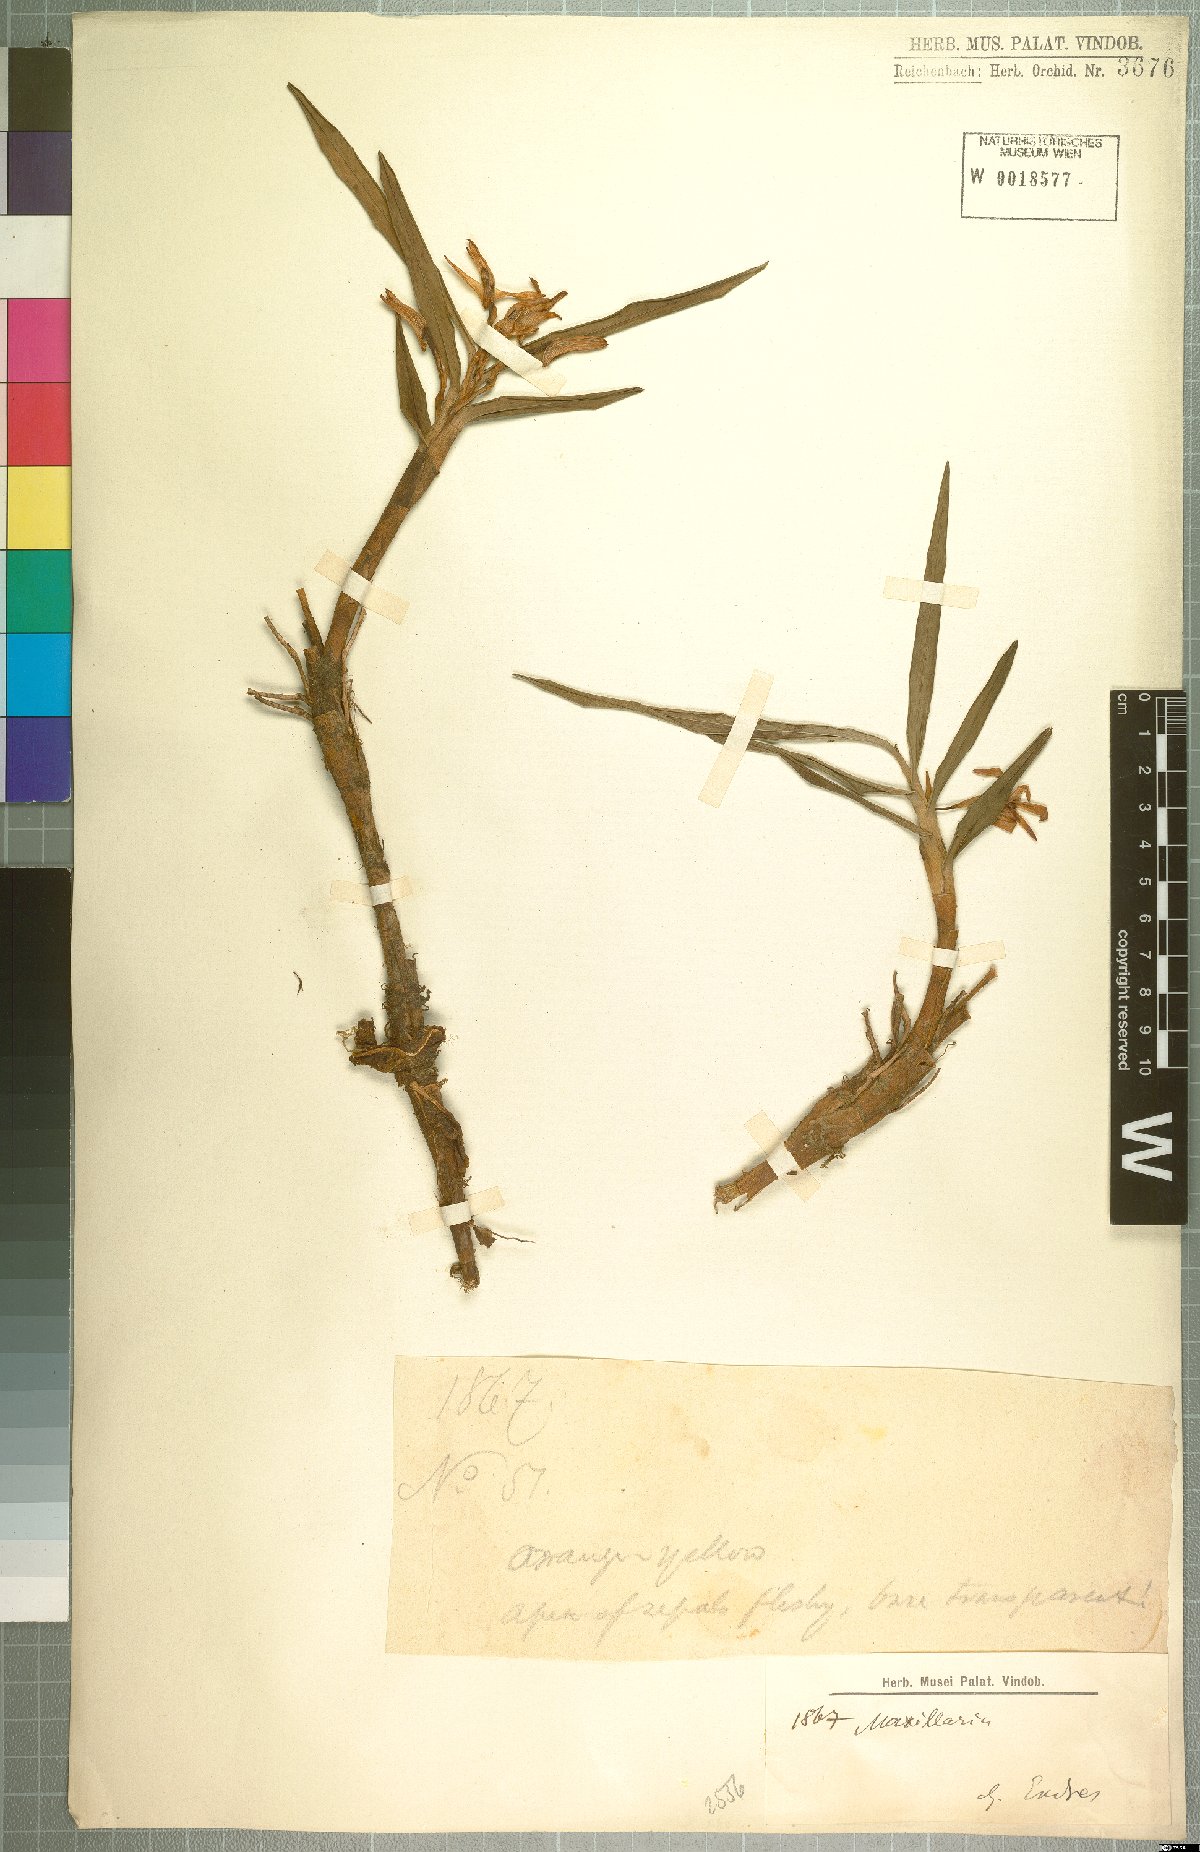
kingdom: Plantae
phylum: Tracheophyta
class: Liliopsida
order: Asparagales
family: Orchidaceae
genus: Maxillaria
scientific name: Maxillaria
